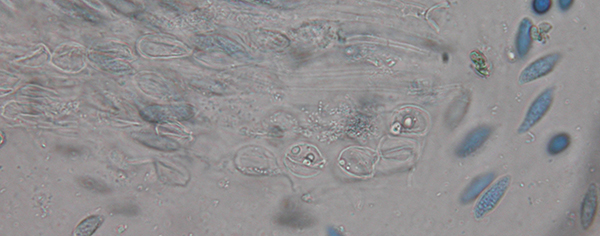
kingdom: Fungi
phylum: Basidiomycota
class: Tremellomycetes
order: Tremellales
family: Sirobasidiaceae
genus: Sirobasidium
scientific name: Sirobasidium albidum
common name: hvid kædebævresvamp
